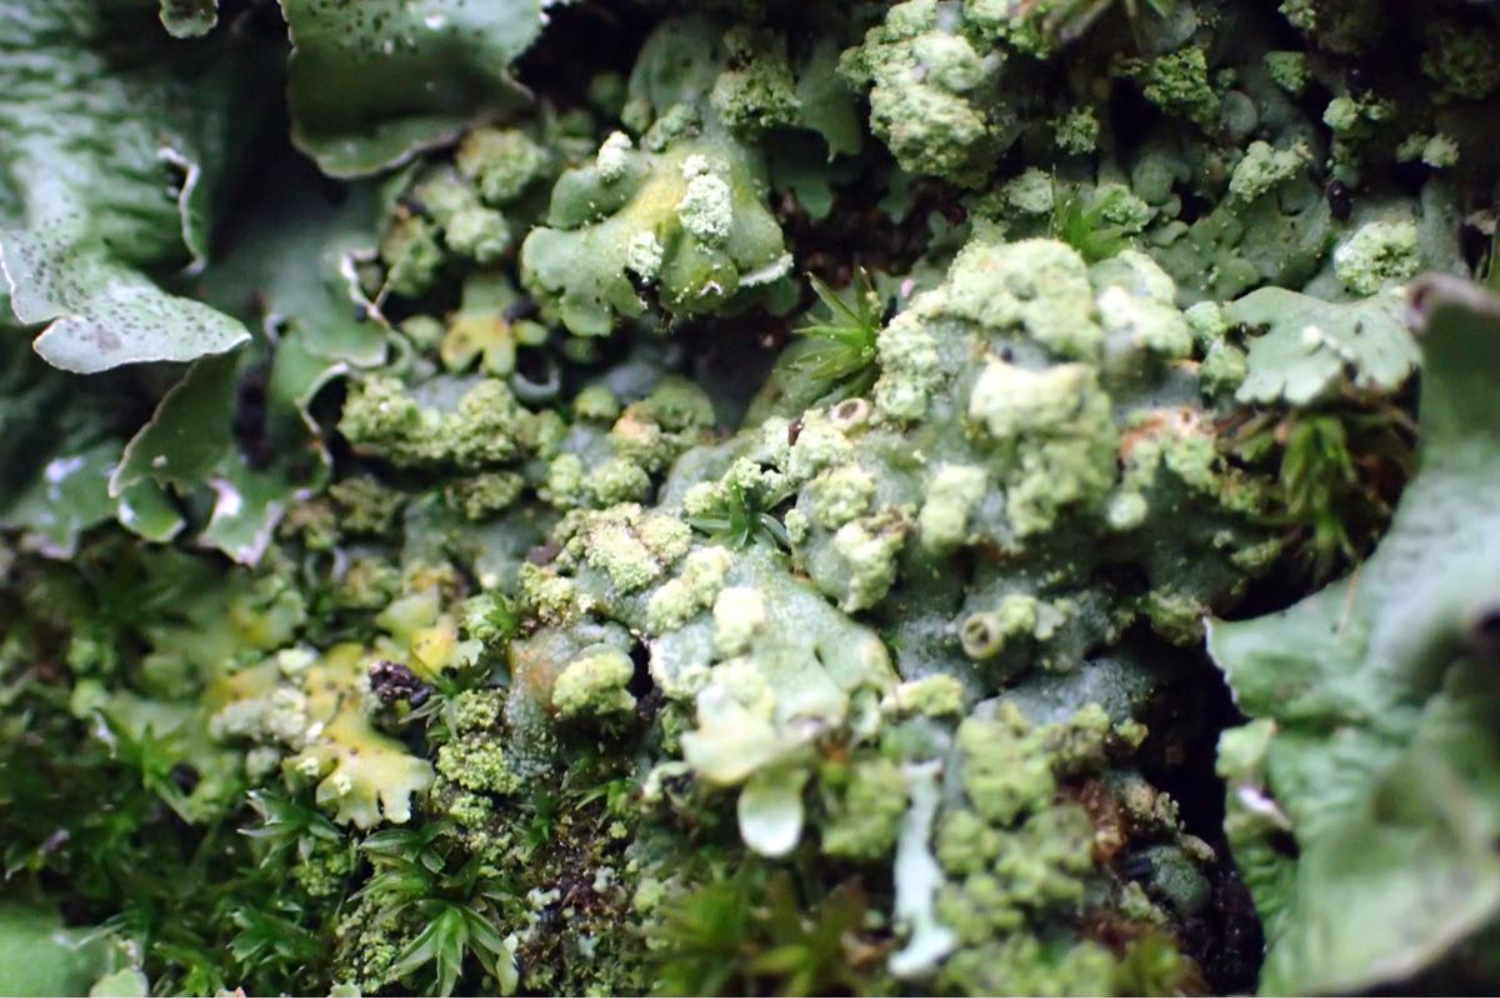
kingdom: Fungi
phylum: Ascomycota
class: Lecanoromycetes
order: Lecanorales
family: Parmeliaceae
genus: Pleurosticta
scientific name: Pleurosticta acetabulum
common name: stor skållav
